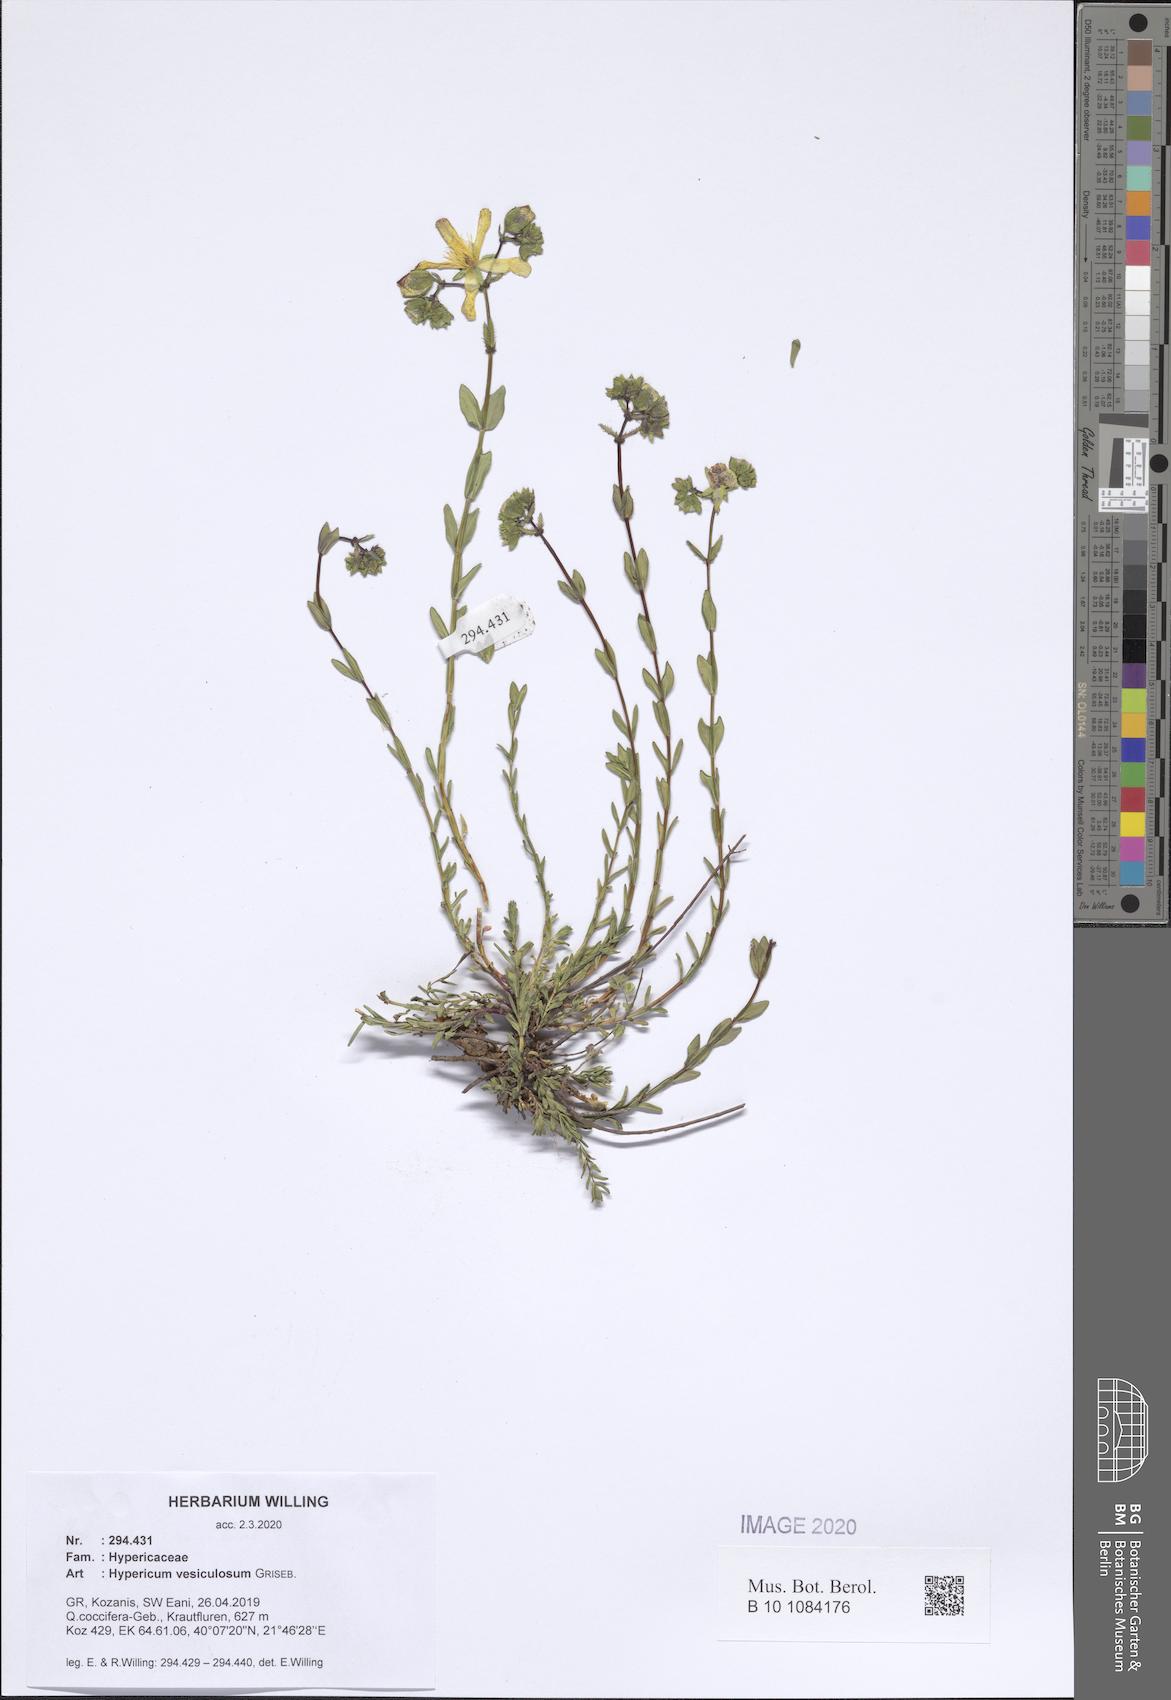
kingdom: Plantae
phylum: Tracheophyta
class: Magnoliopsida
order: Malpighiales
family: Hypericaceae
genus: Hypericum
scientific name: Hypericum vesiculosum
